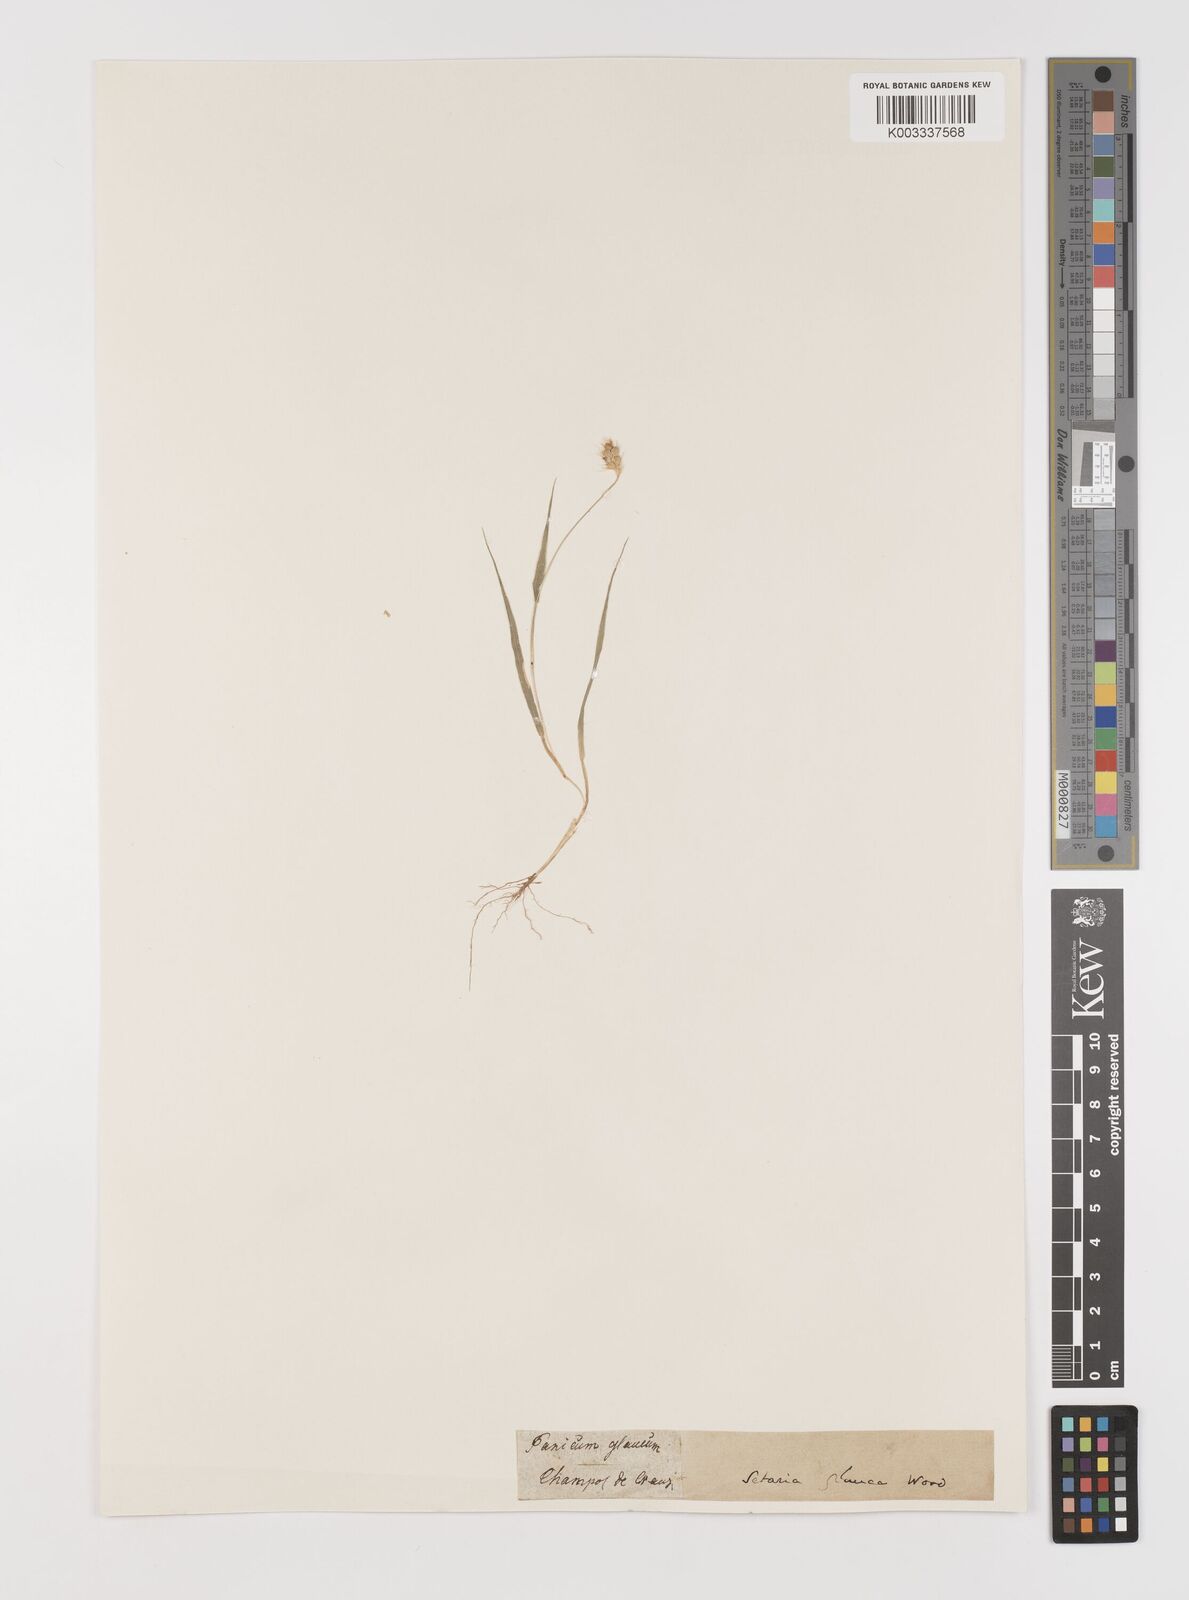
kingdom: Plantae
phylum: Tracheophyta
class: Liliopsida
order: Poales
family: Poaceae
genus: Setaria
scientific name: Setaria pumila
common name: Yellow bristle-grass
